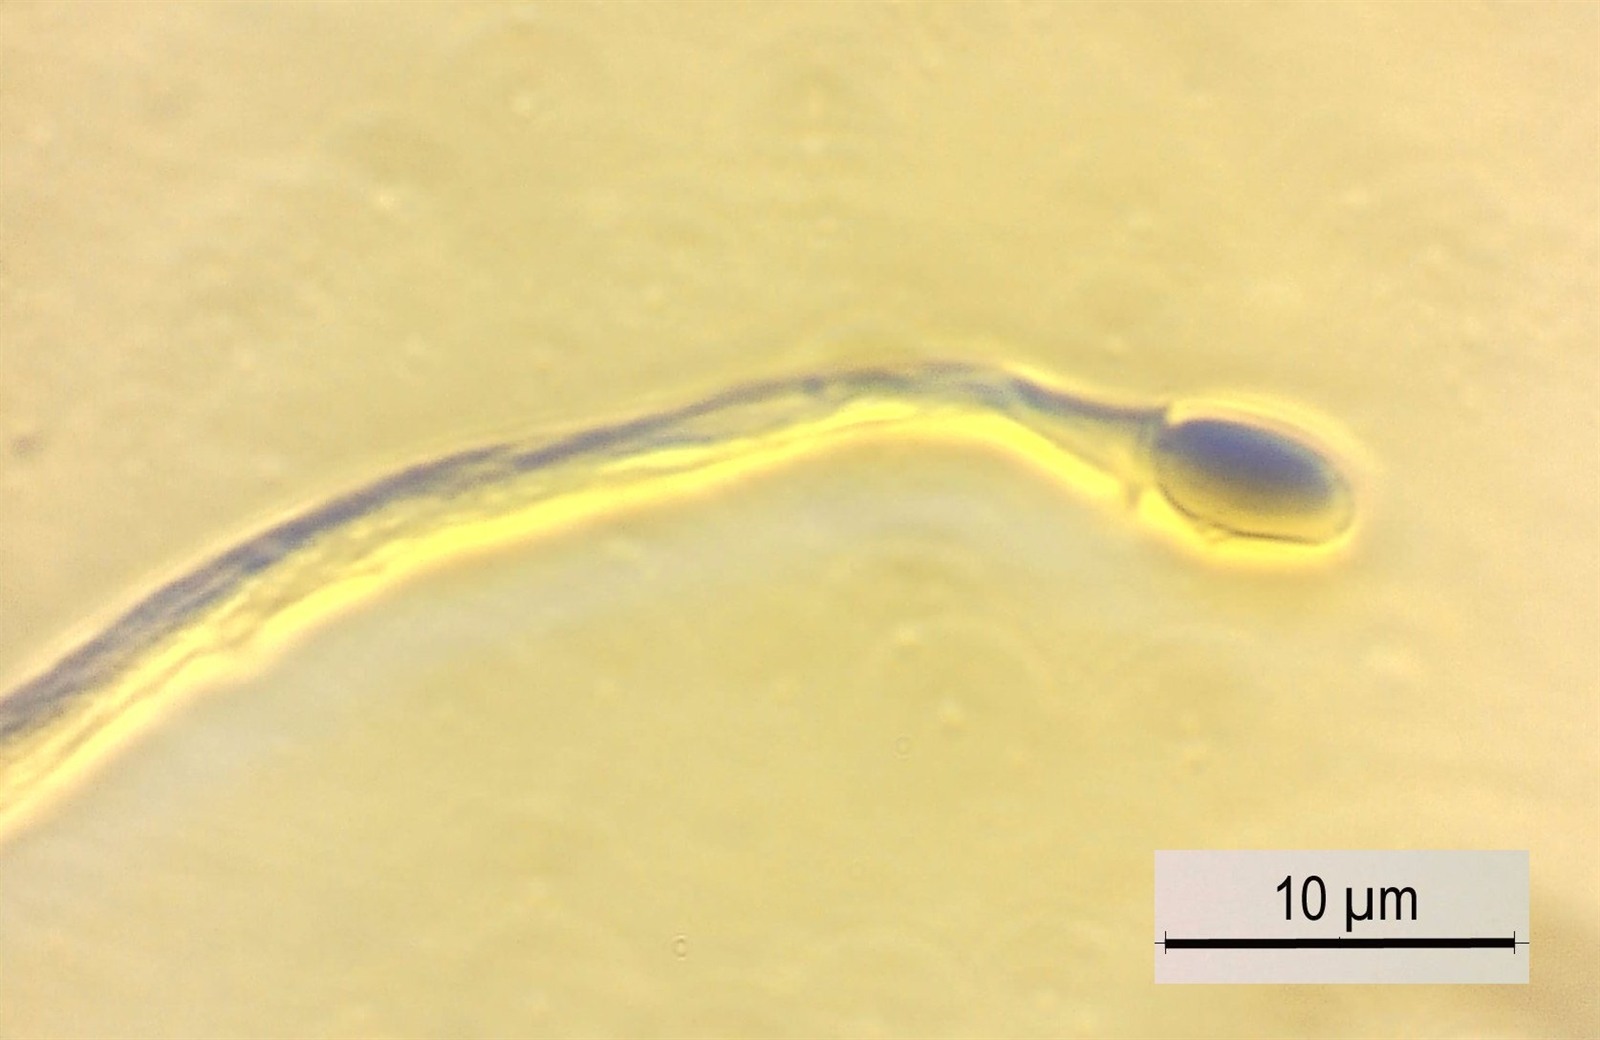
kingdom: Protozoa
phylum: Mycetozoa
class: Myxomycetes
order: Echinosteliales
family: Echinosteliaceae
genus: Echinostelium
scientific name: Echinostelium fragile
